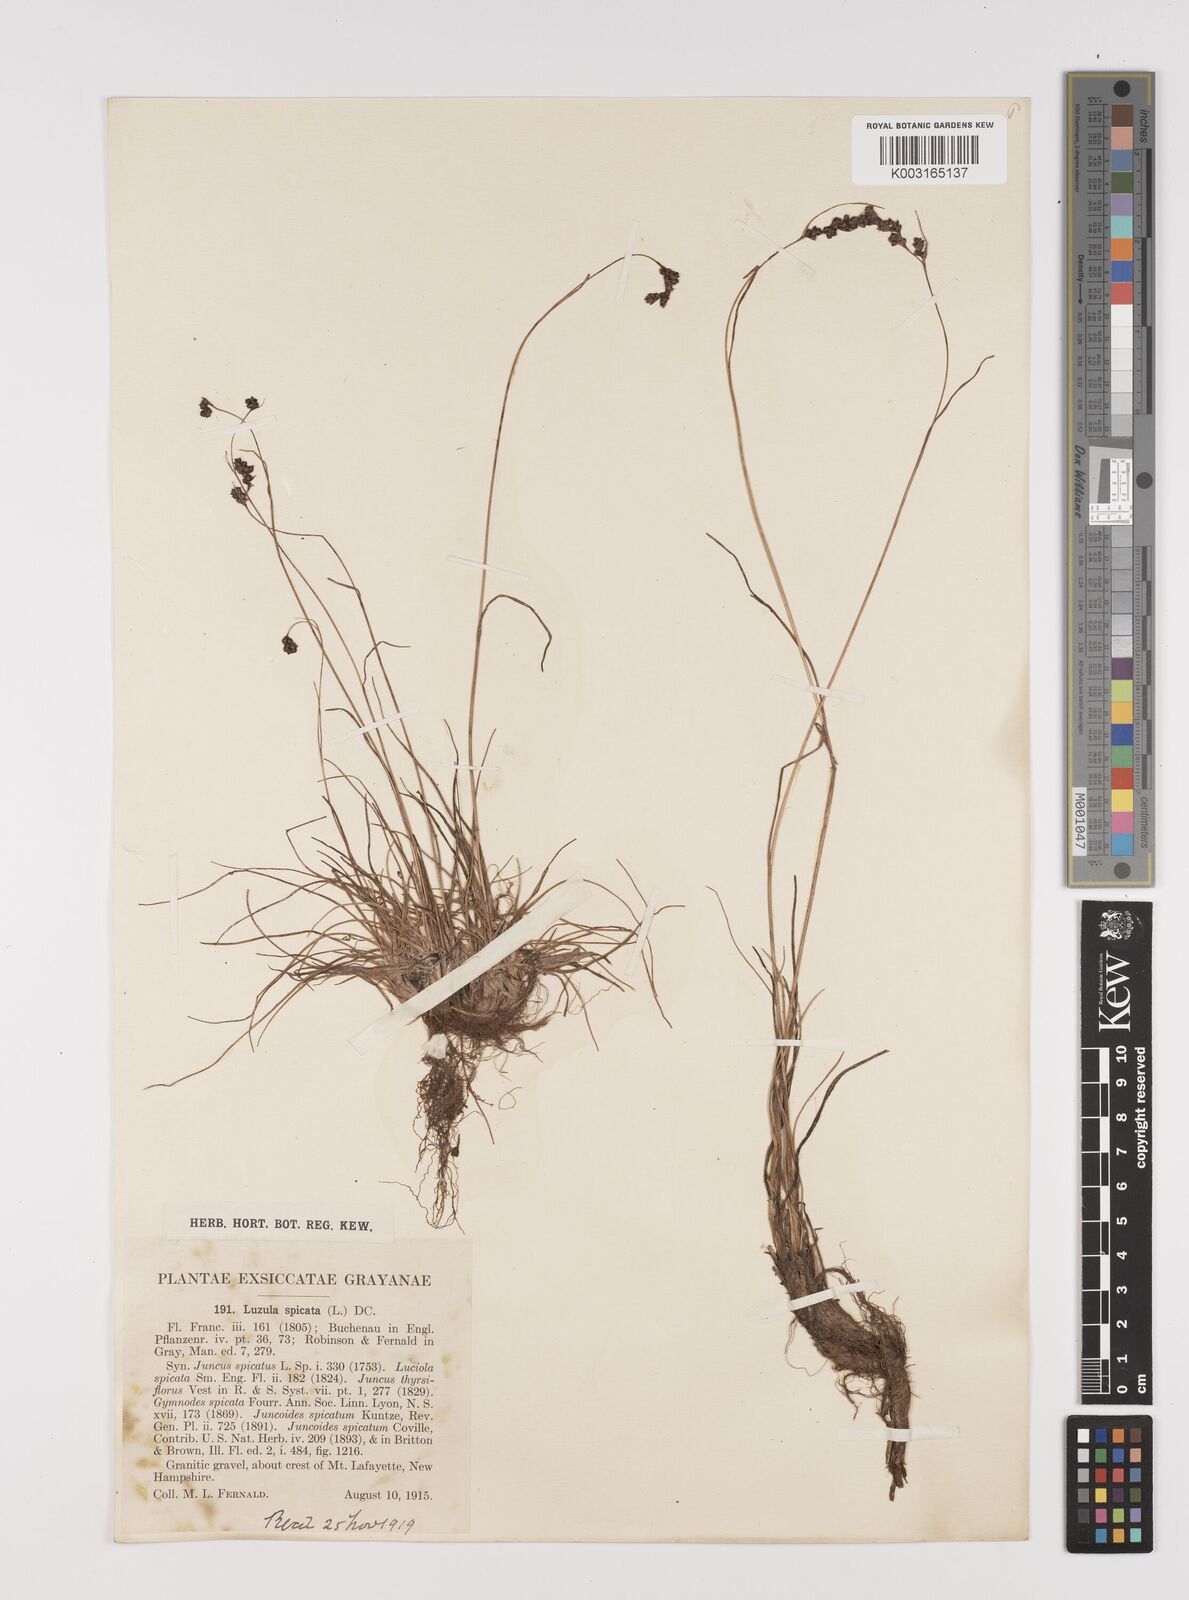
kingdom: Plantae
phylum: Tracheophyta
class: Liliopsida
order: Poales
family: Juncaceae
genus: Luzula
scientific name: Luzula spicata
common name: Spiked wood-rush
